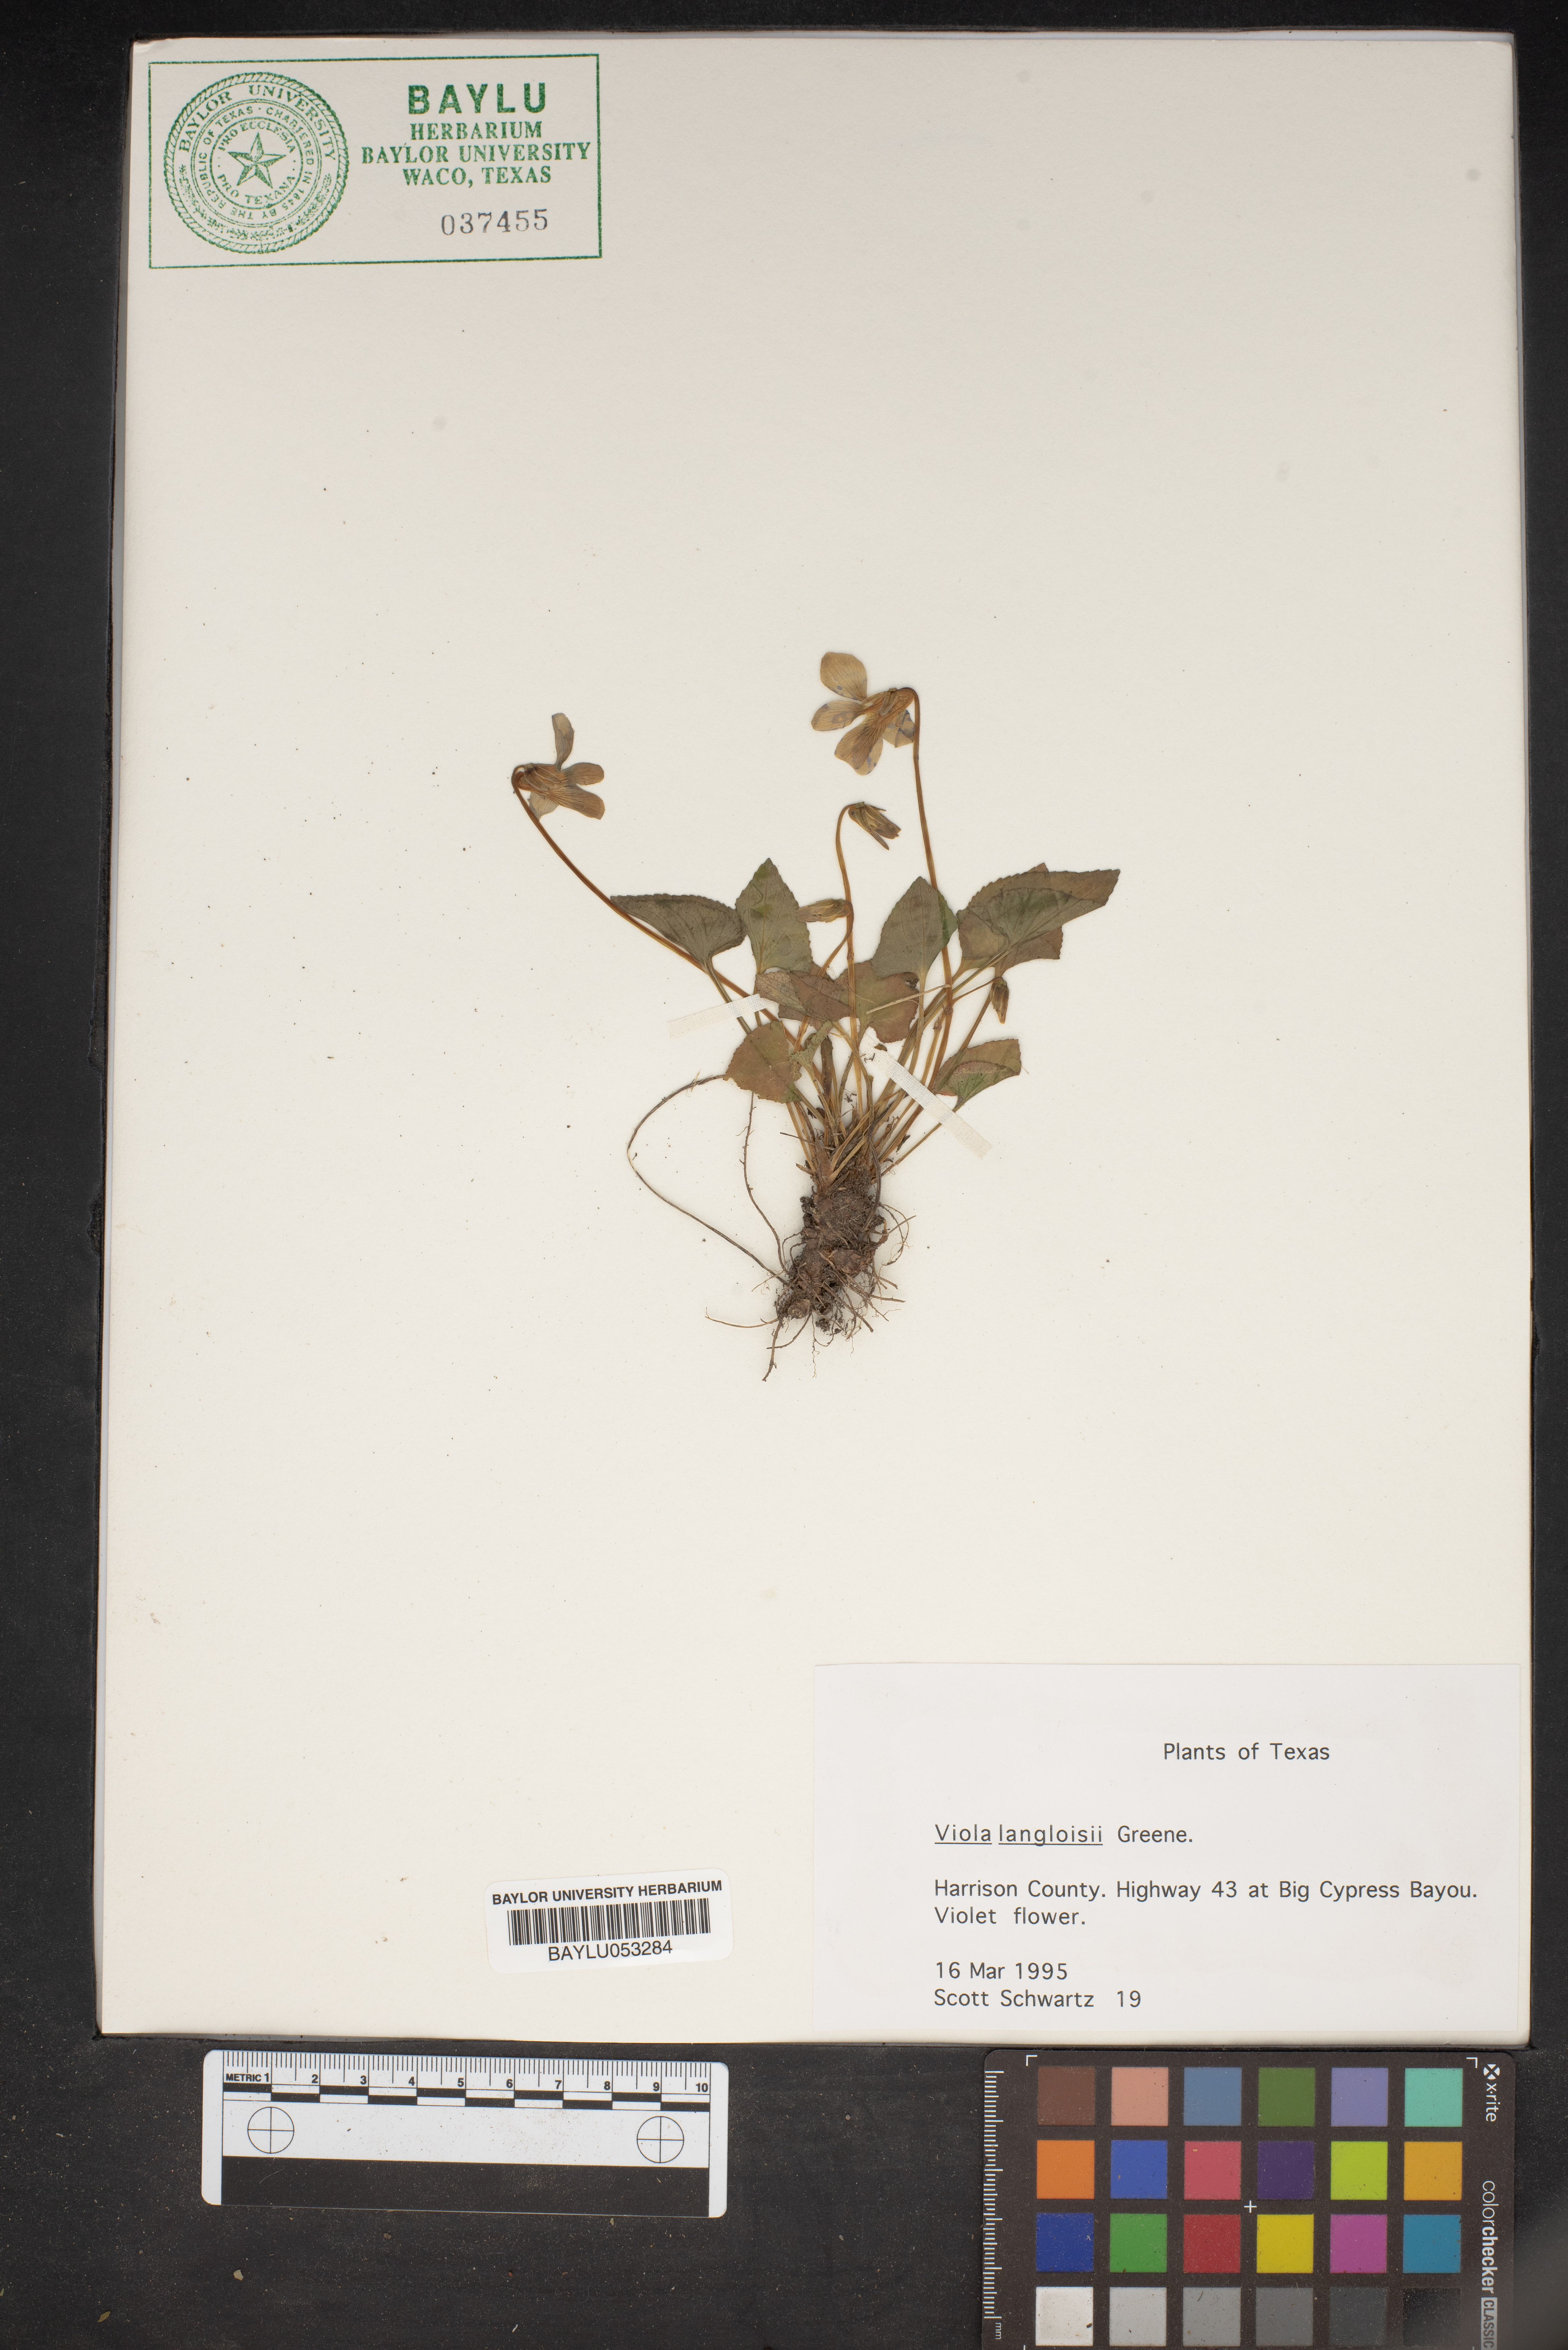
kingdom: Plantae
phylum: Tracheophyta
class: Magnoliopsida
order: Malpighiales
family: Violaceae
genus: Viola
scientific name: Viola langloisii
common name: Langlois' violet
